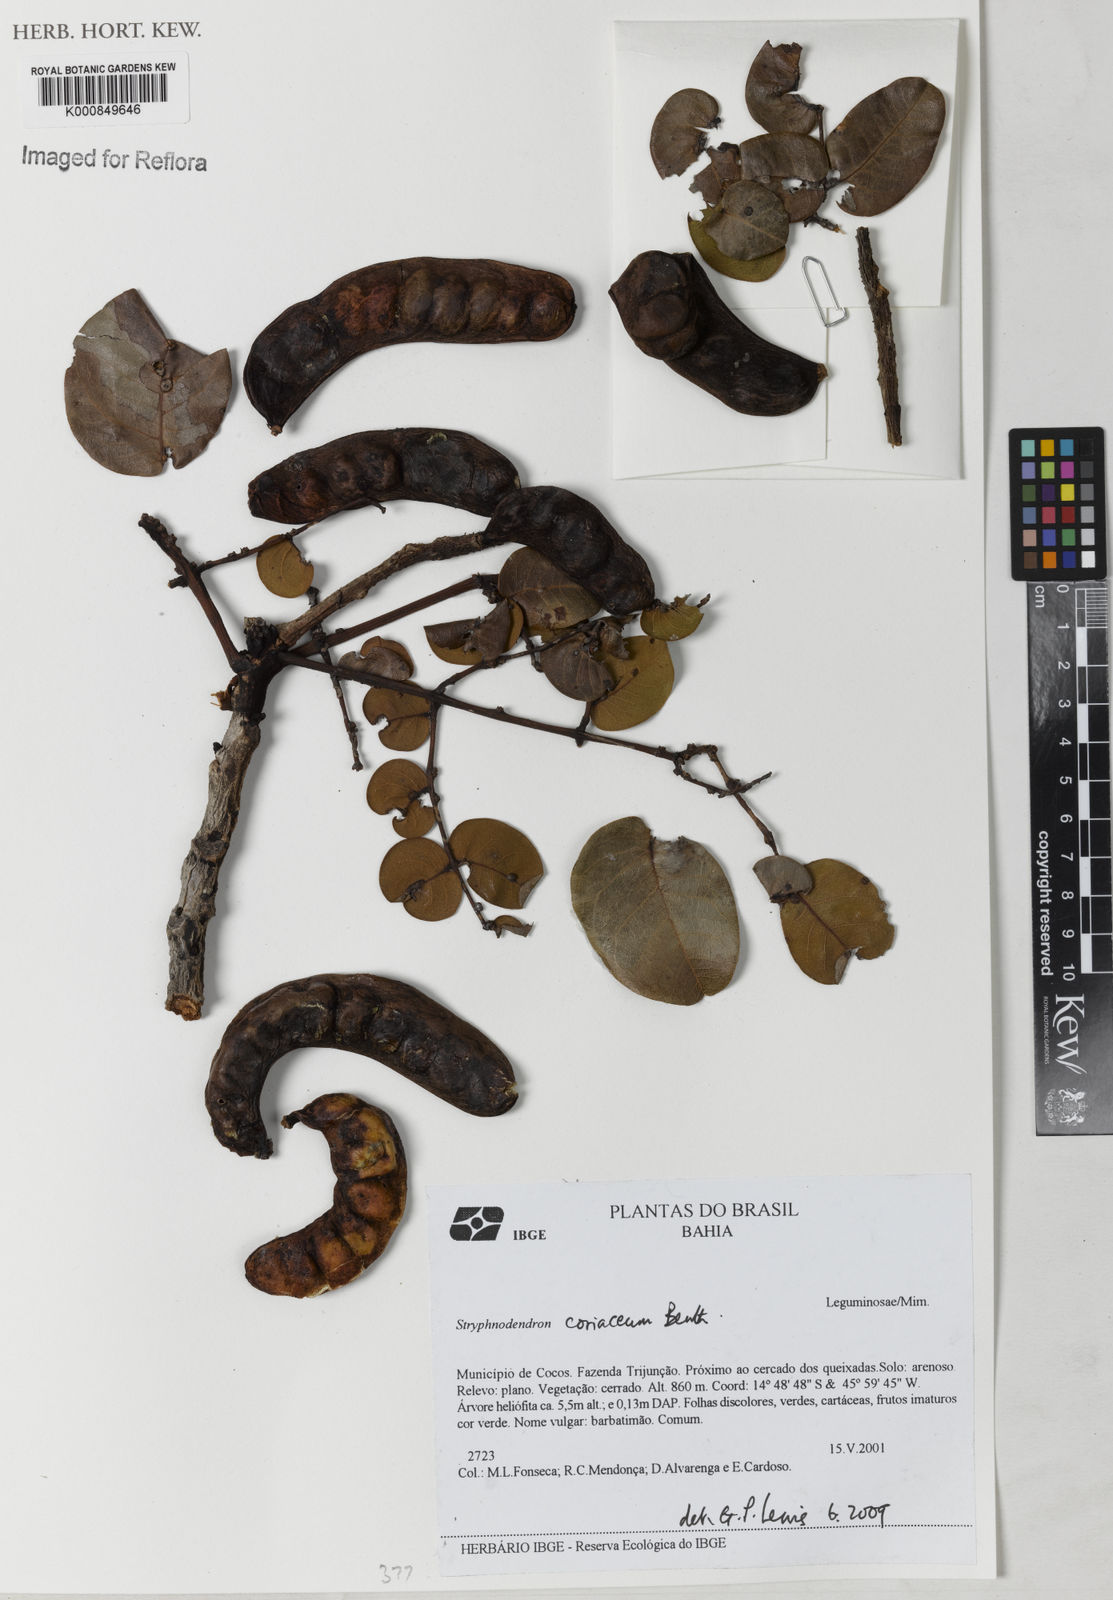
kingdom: Plantae
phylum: Tracheophyta
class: Magnoliopsida
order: Fabales
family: Fabaceae
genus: Stryphnodendron
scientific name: Stryphnodendron coriaceum
